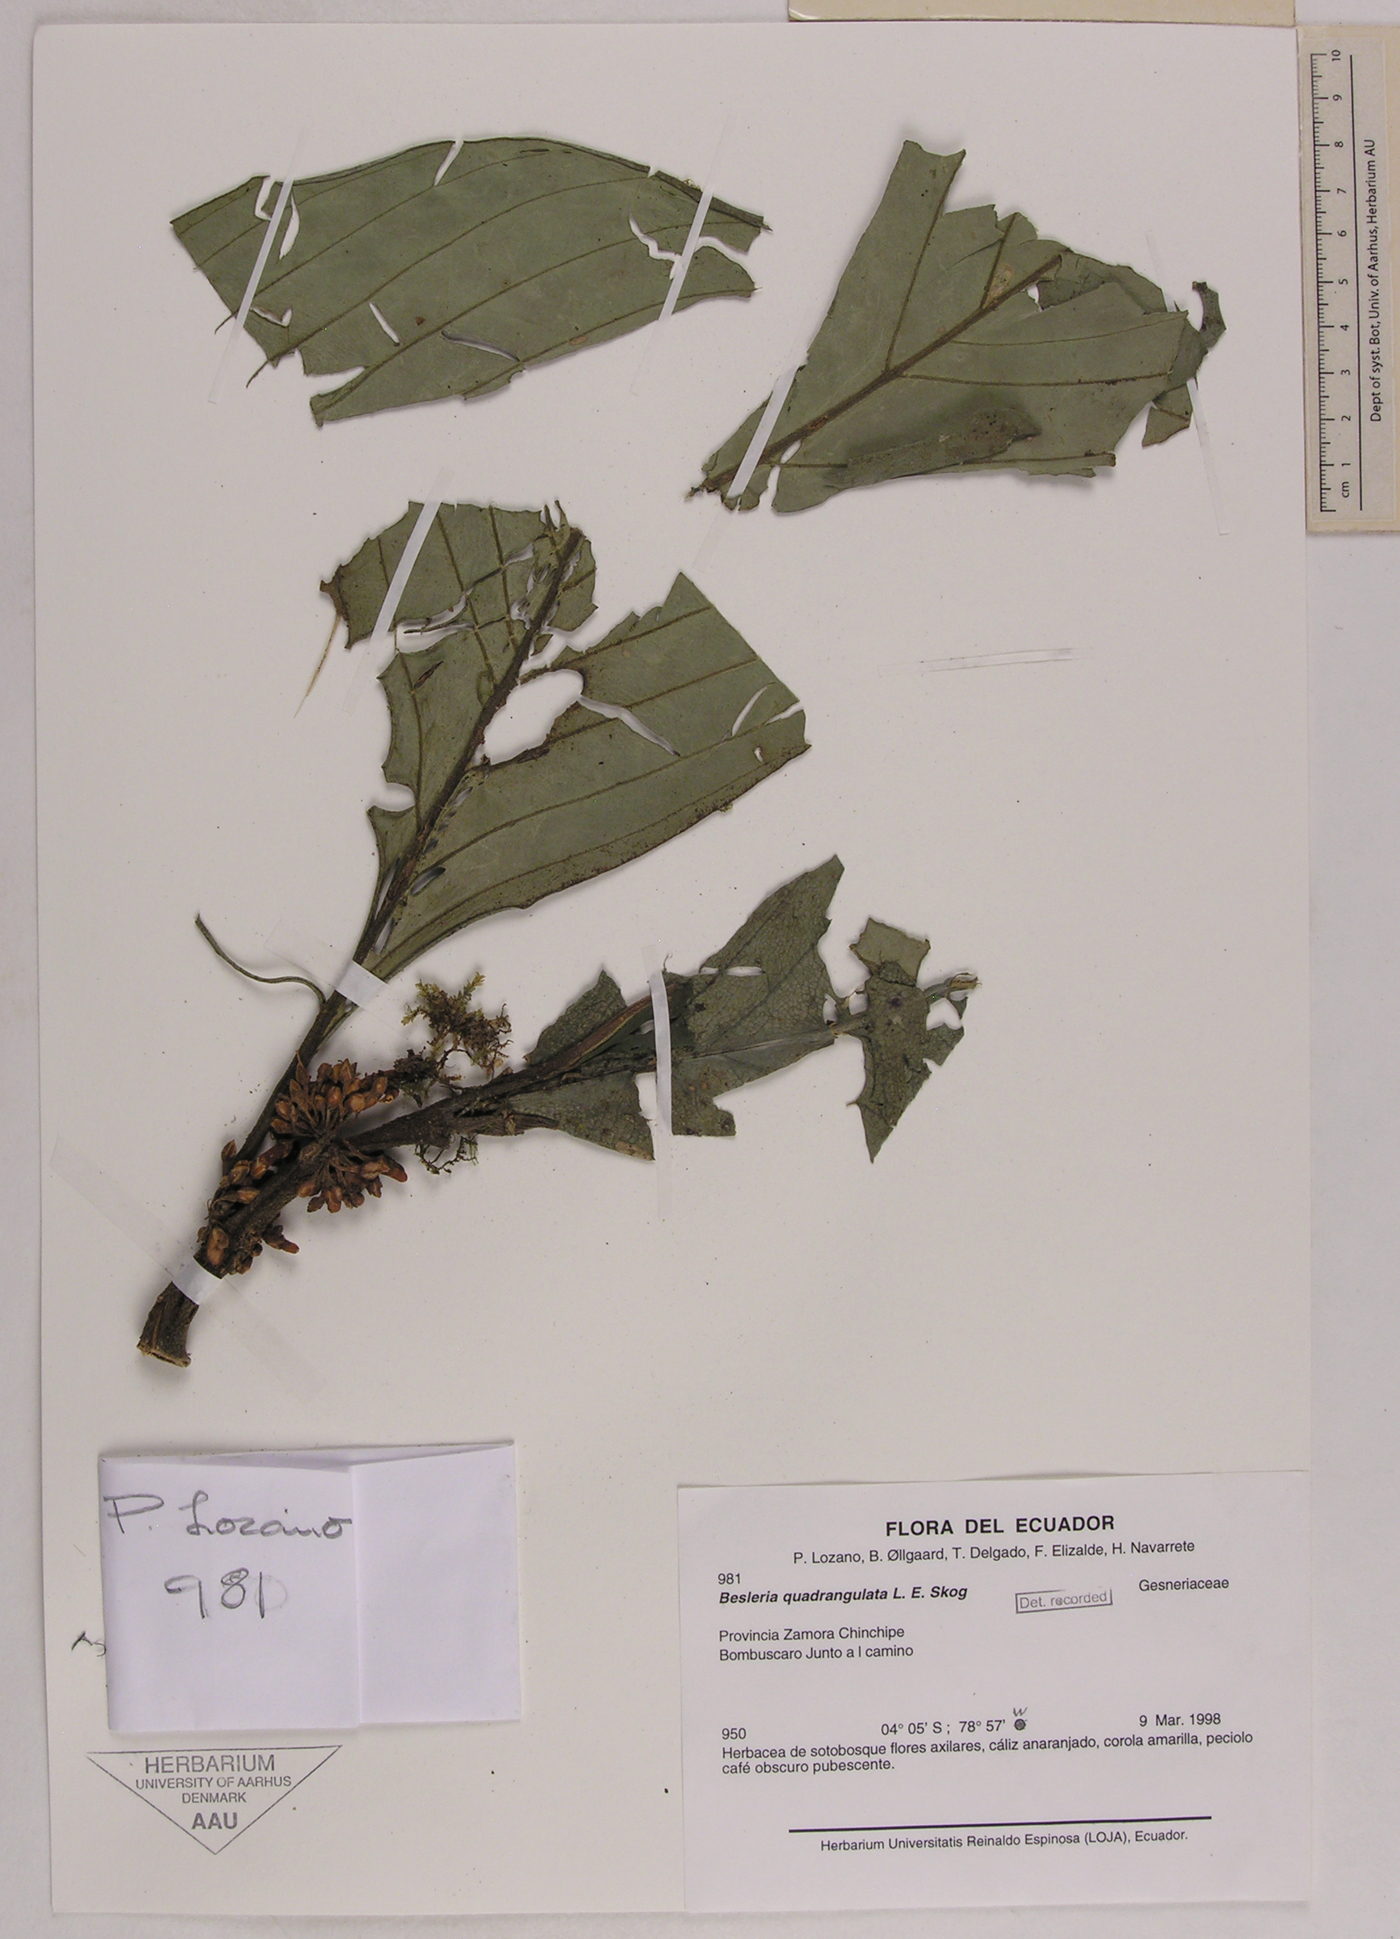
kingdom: Plantae
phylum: Tracheophyta
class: Magnoliopsida
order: Lamiales
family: Gesneriaceae
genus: Besleria
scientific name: Besleria quadrangulata
